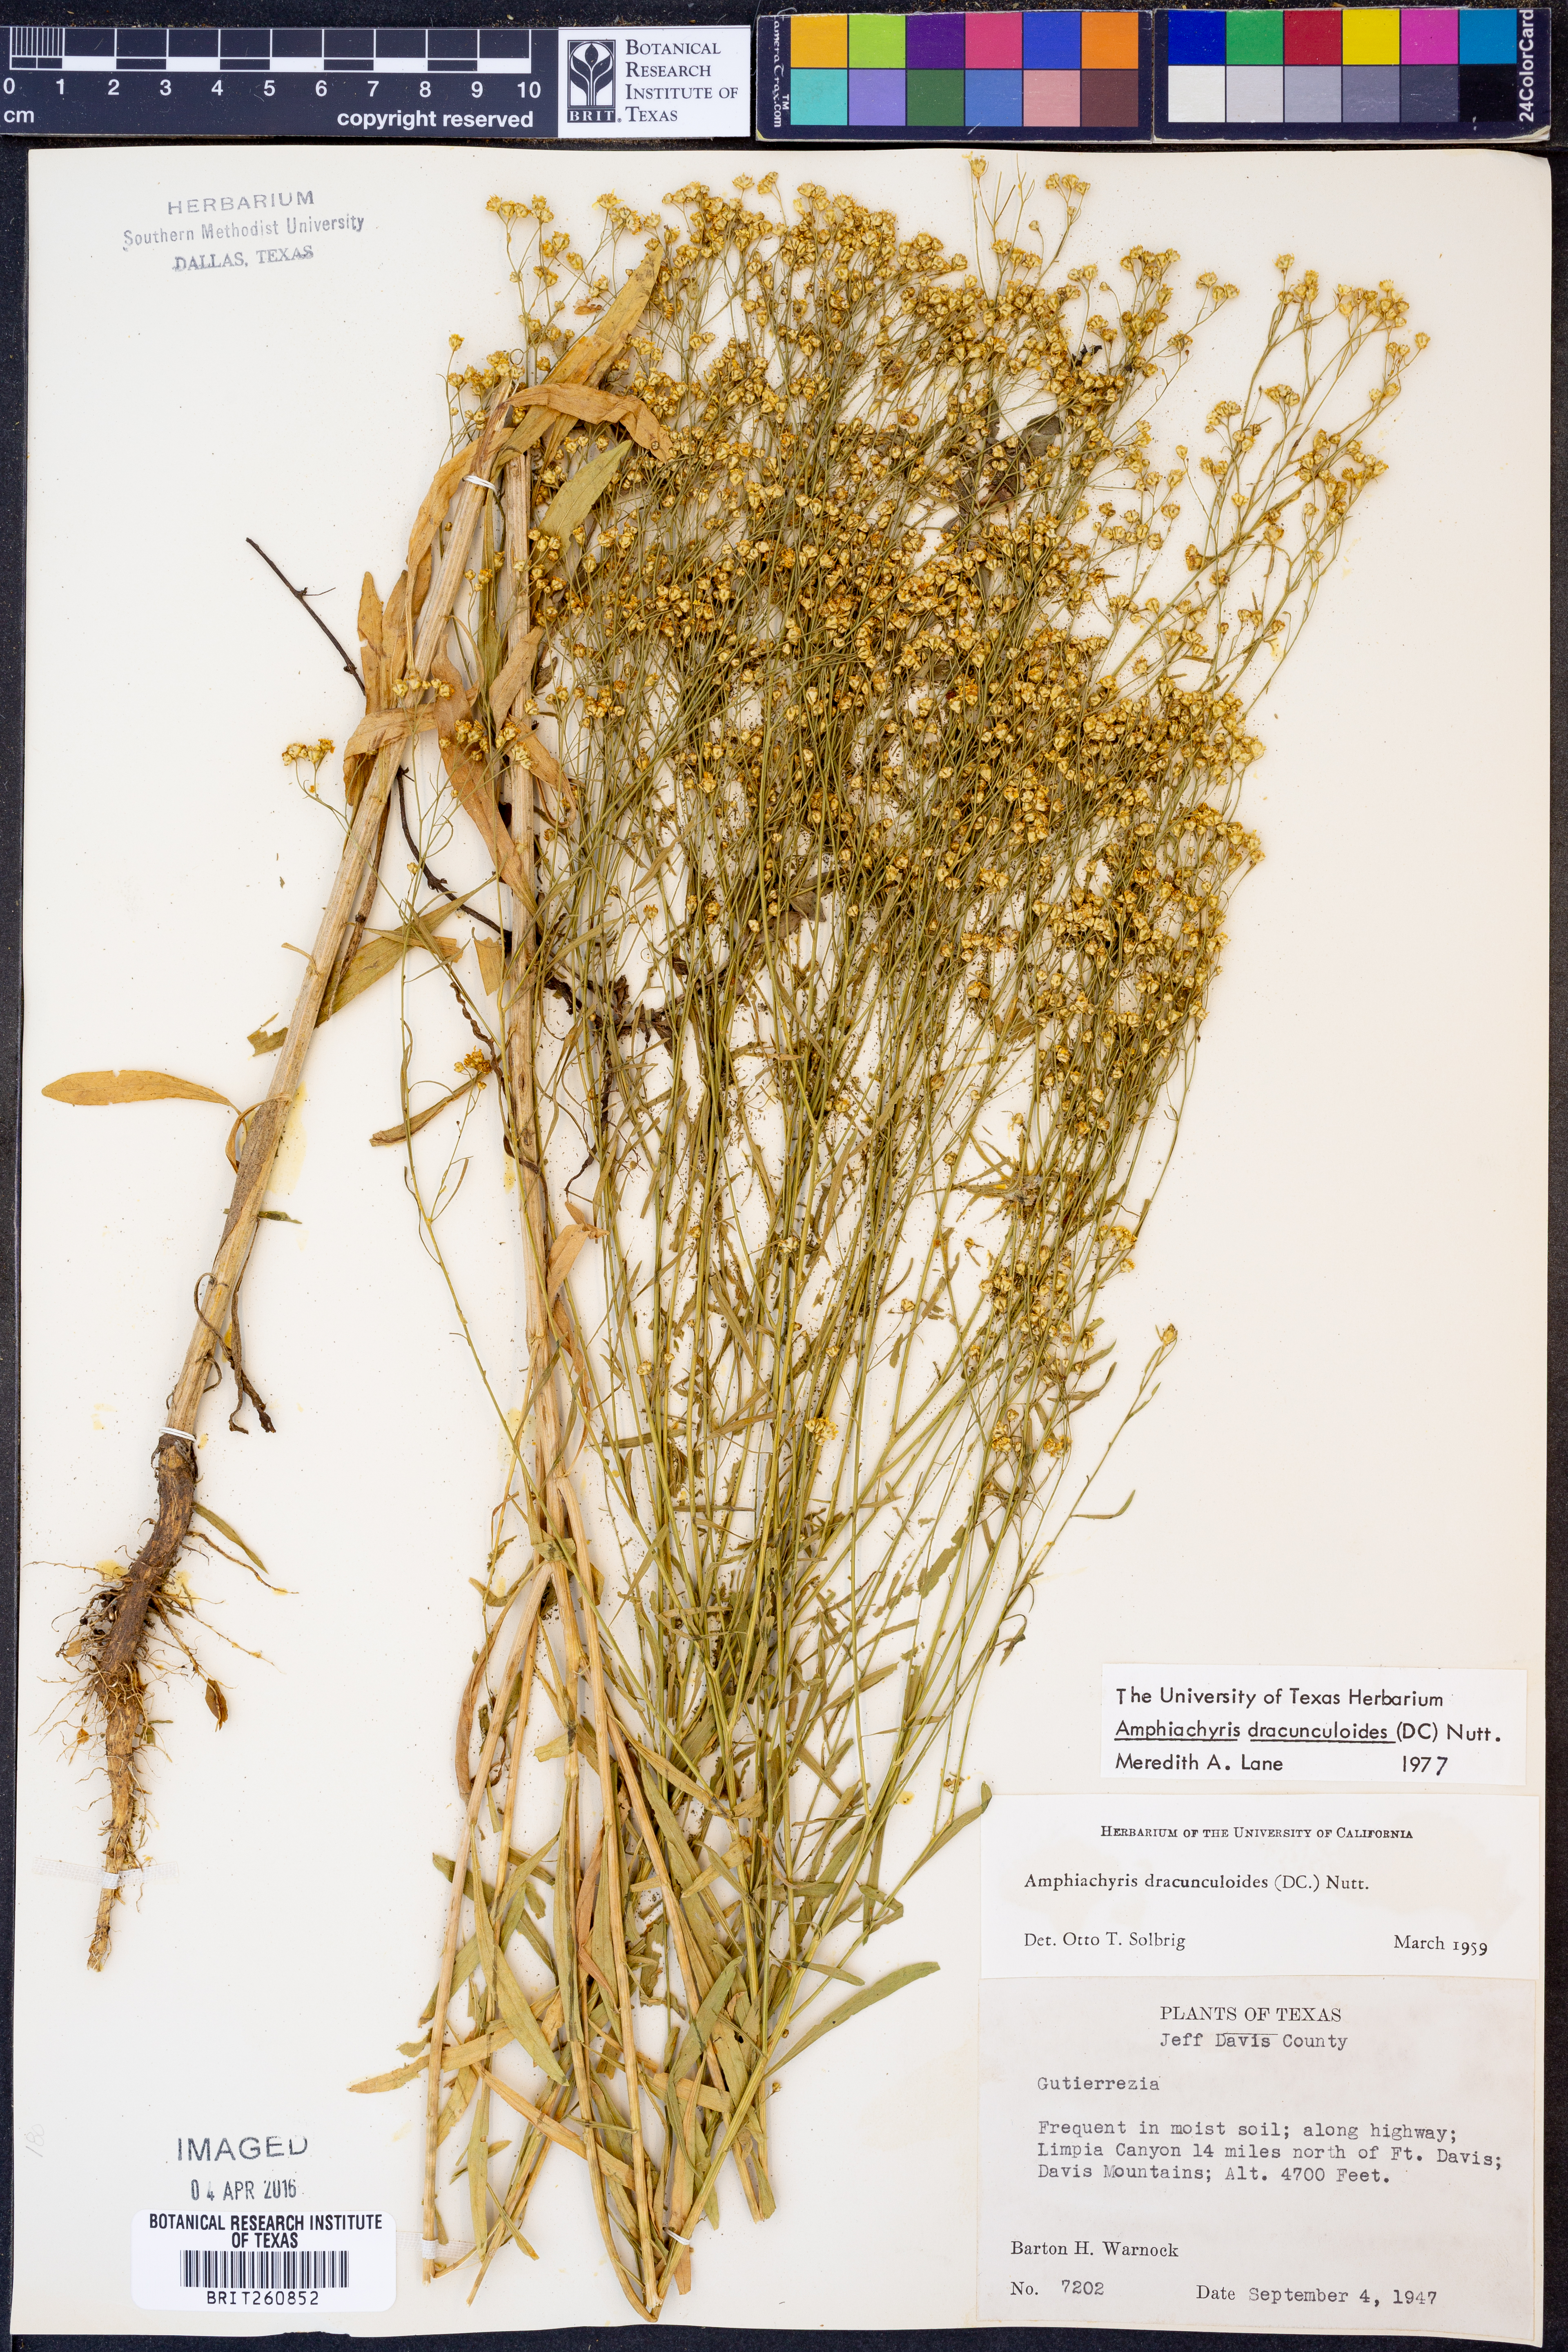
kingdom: Plantae
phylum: Tracheophyta
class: Magnoliopsida
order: Asterales
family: Asteraceae
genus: Amphiachyris
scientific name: Amphiachyris dracunculoides
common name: Broomweed
